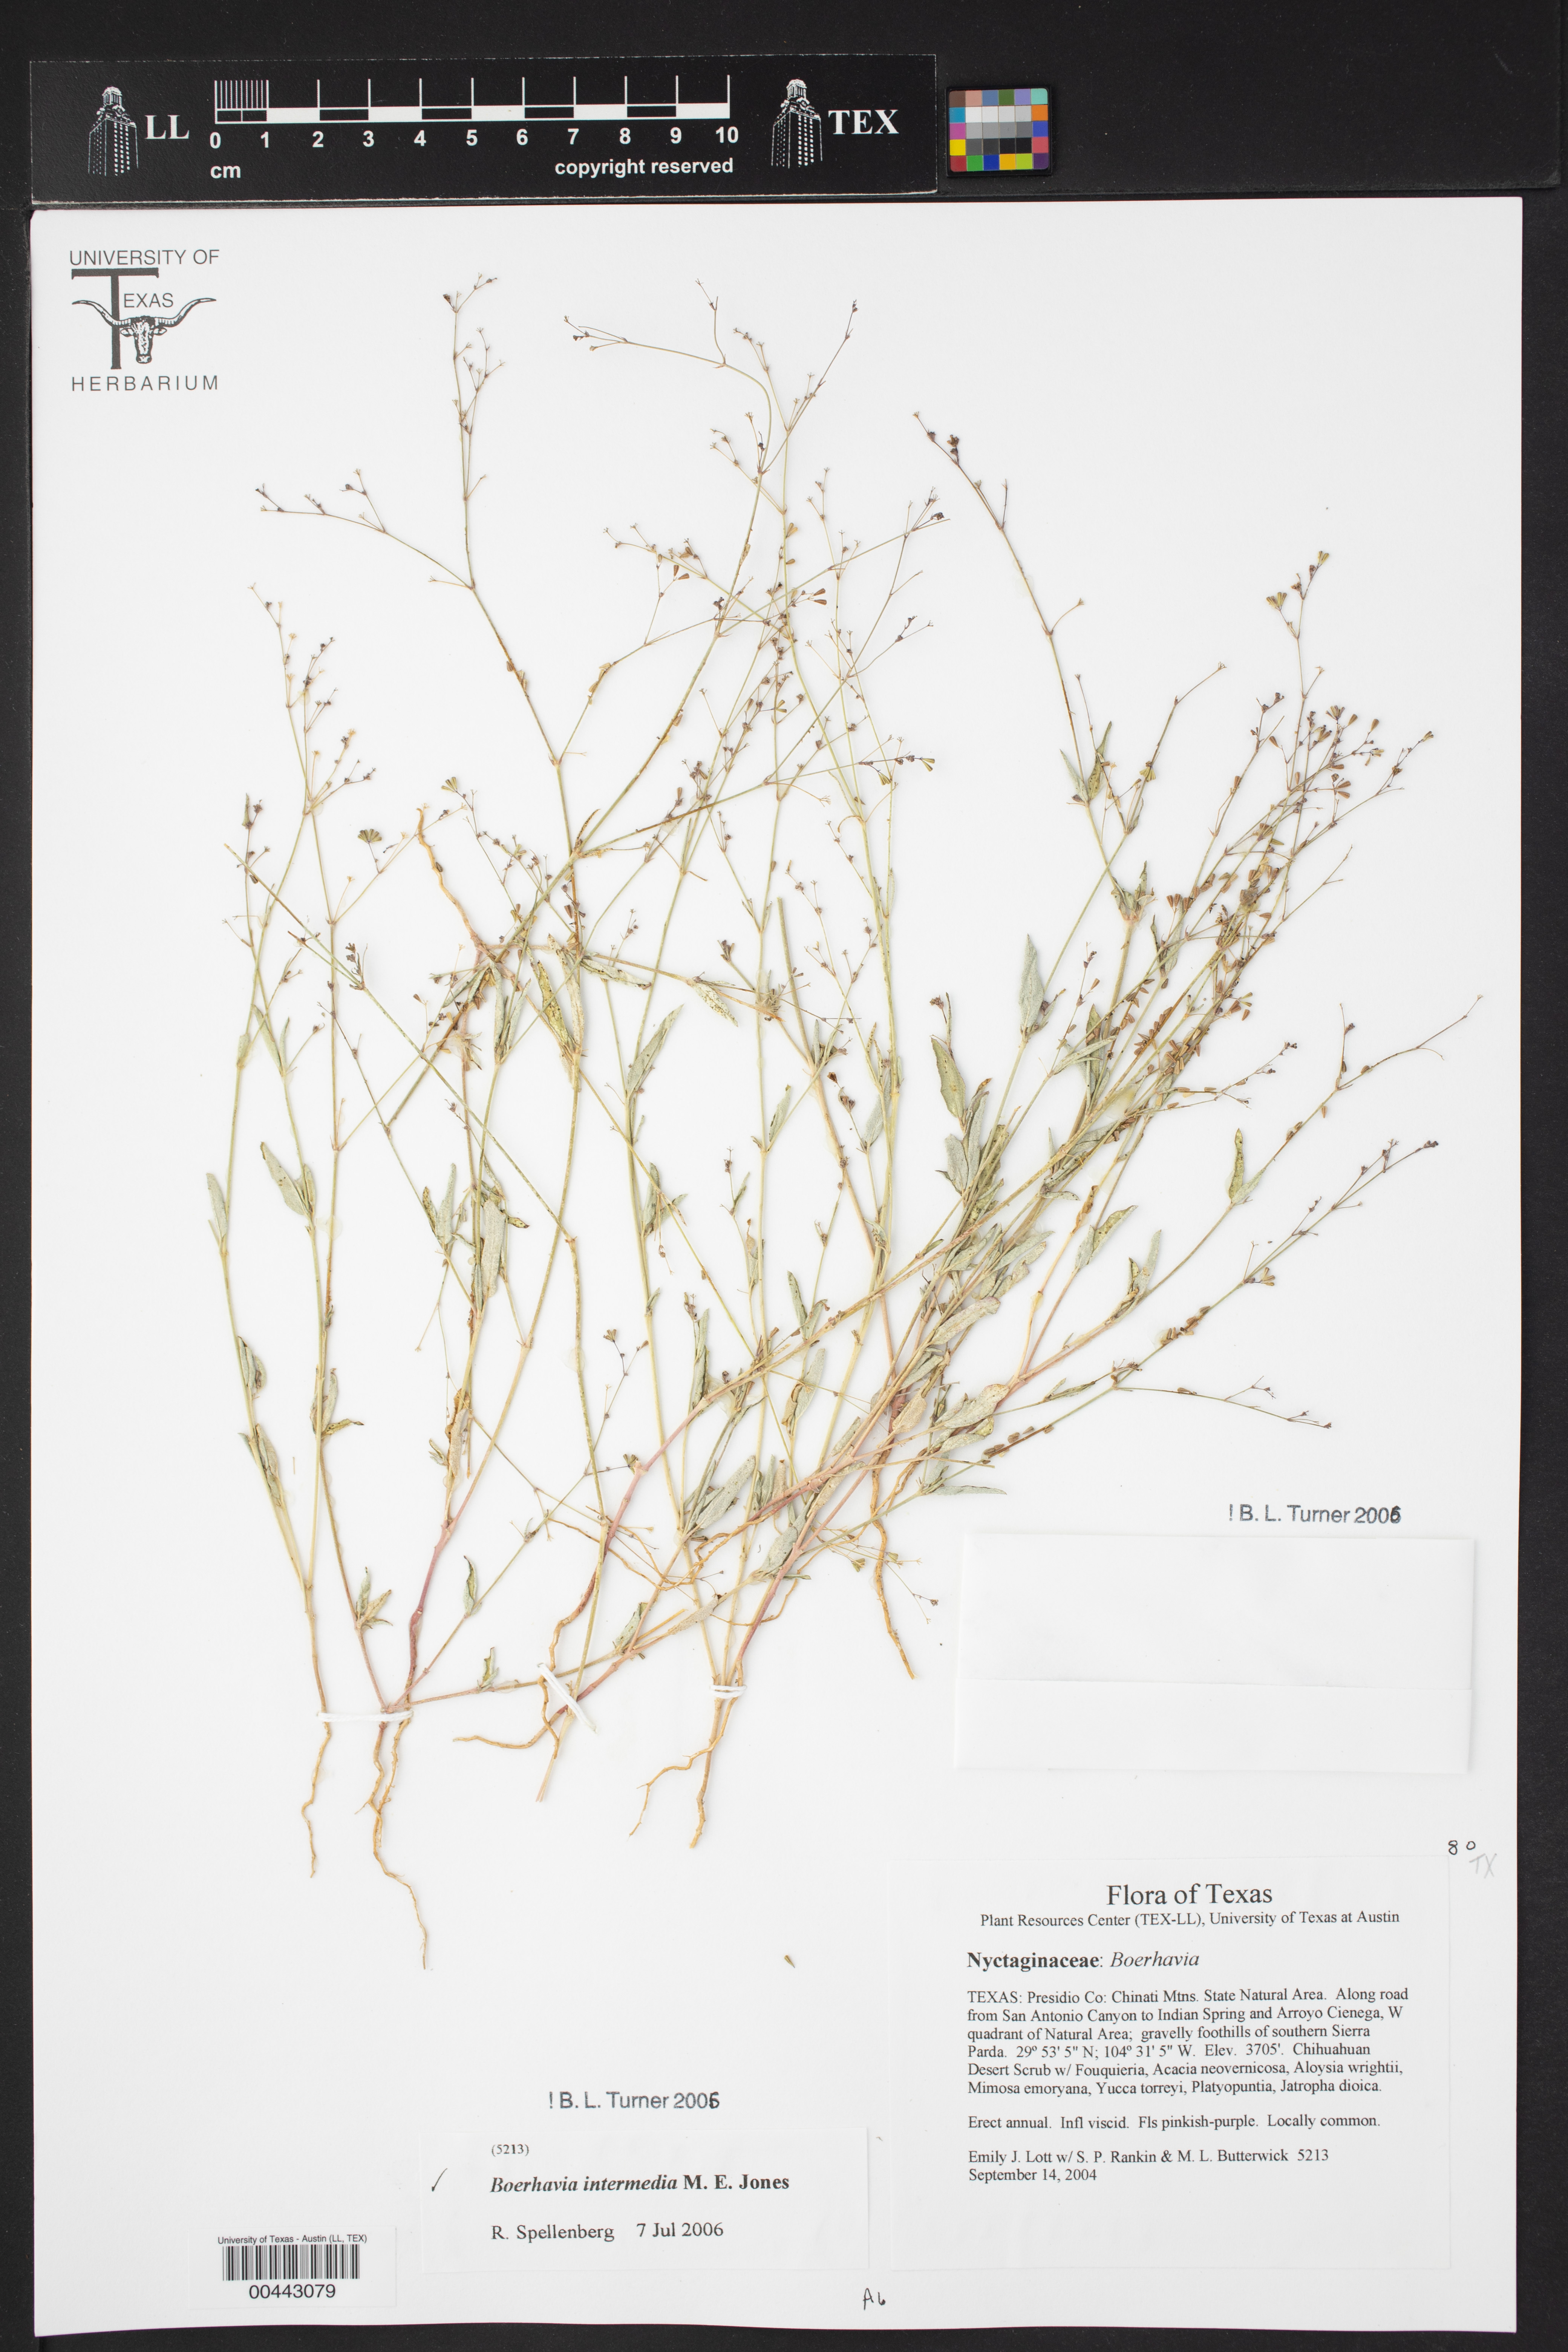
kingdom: Plantae
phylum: Tracheophyta
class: Magnoliopsida
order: Caryophyllales
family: Nyctaginaceae
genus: Boerhavia
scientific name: Boerhavia triquetra
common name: Creeping sticky-stem
